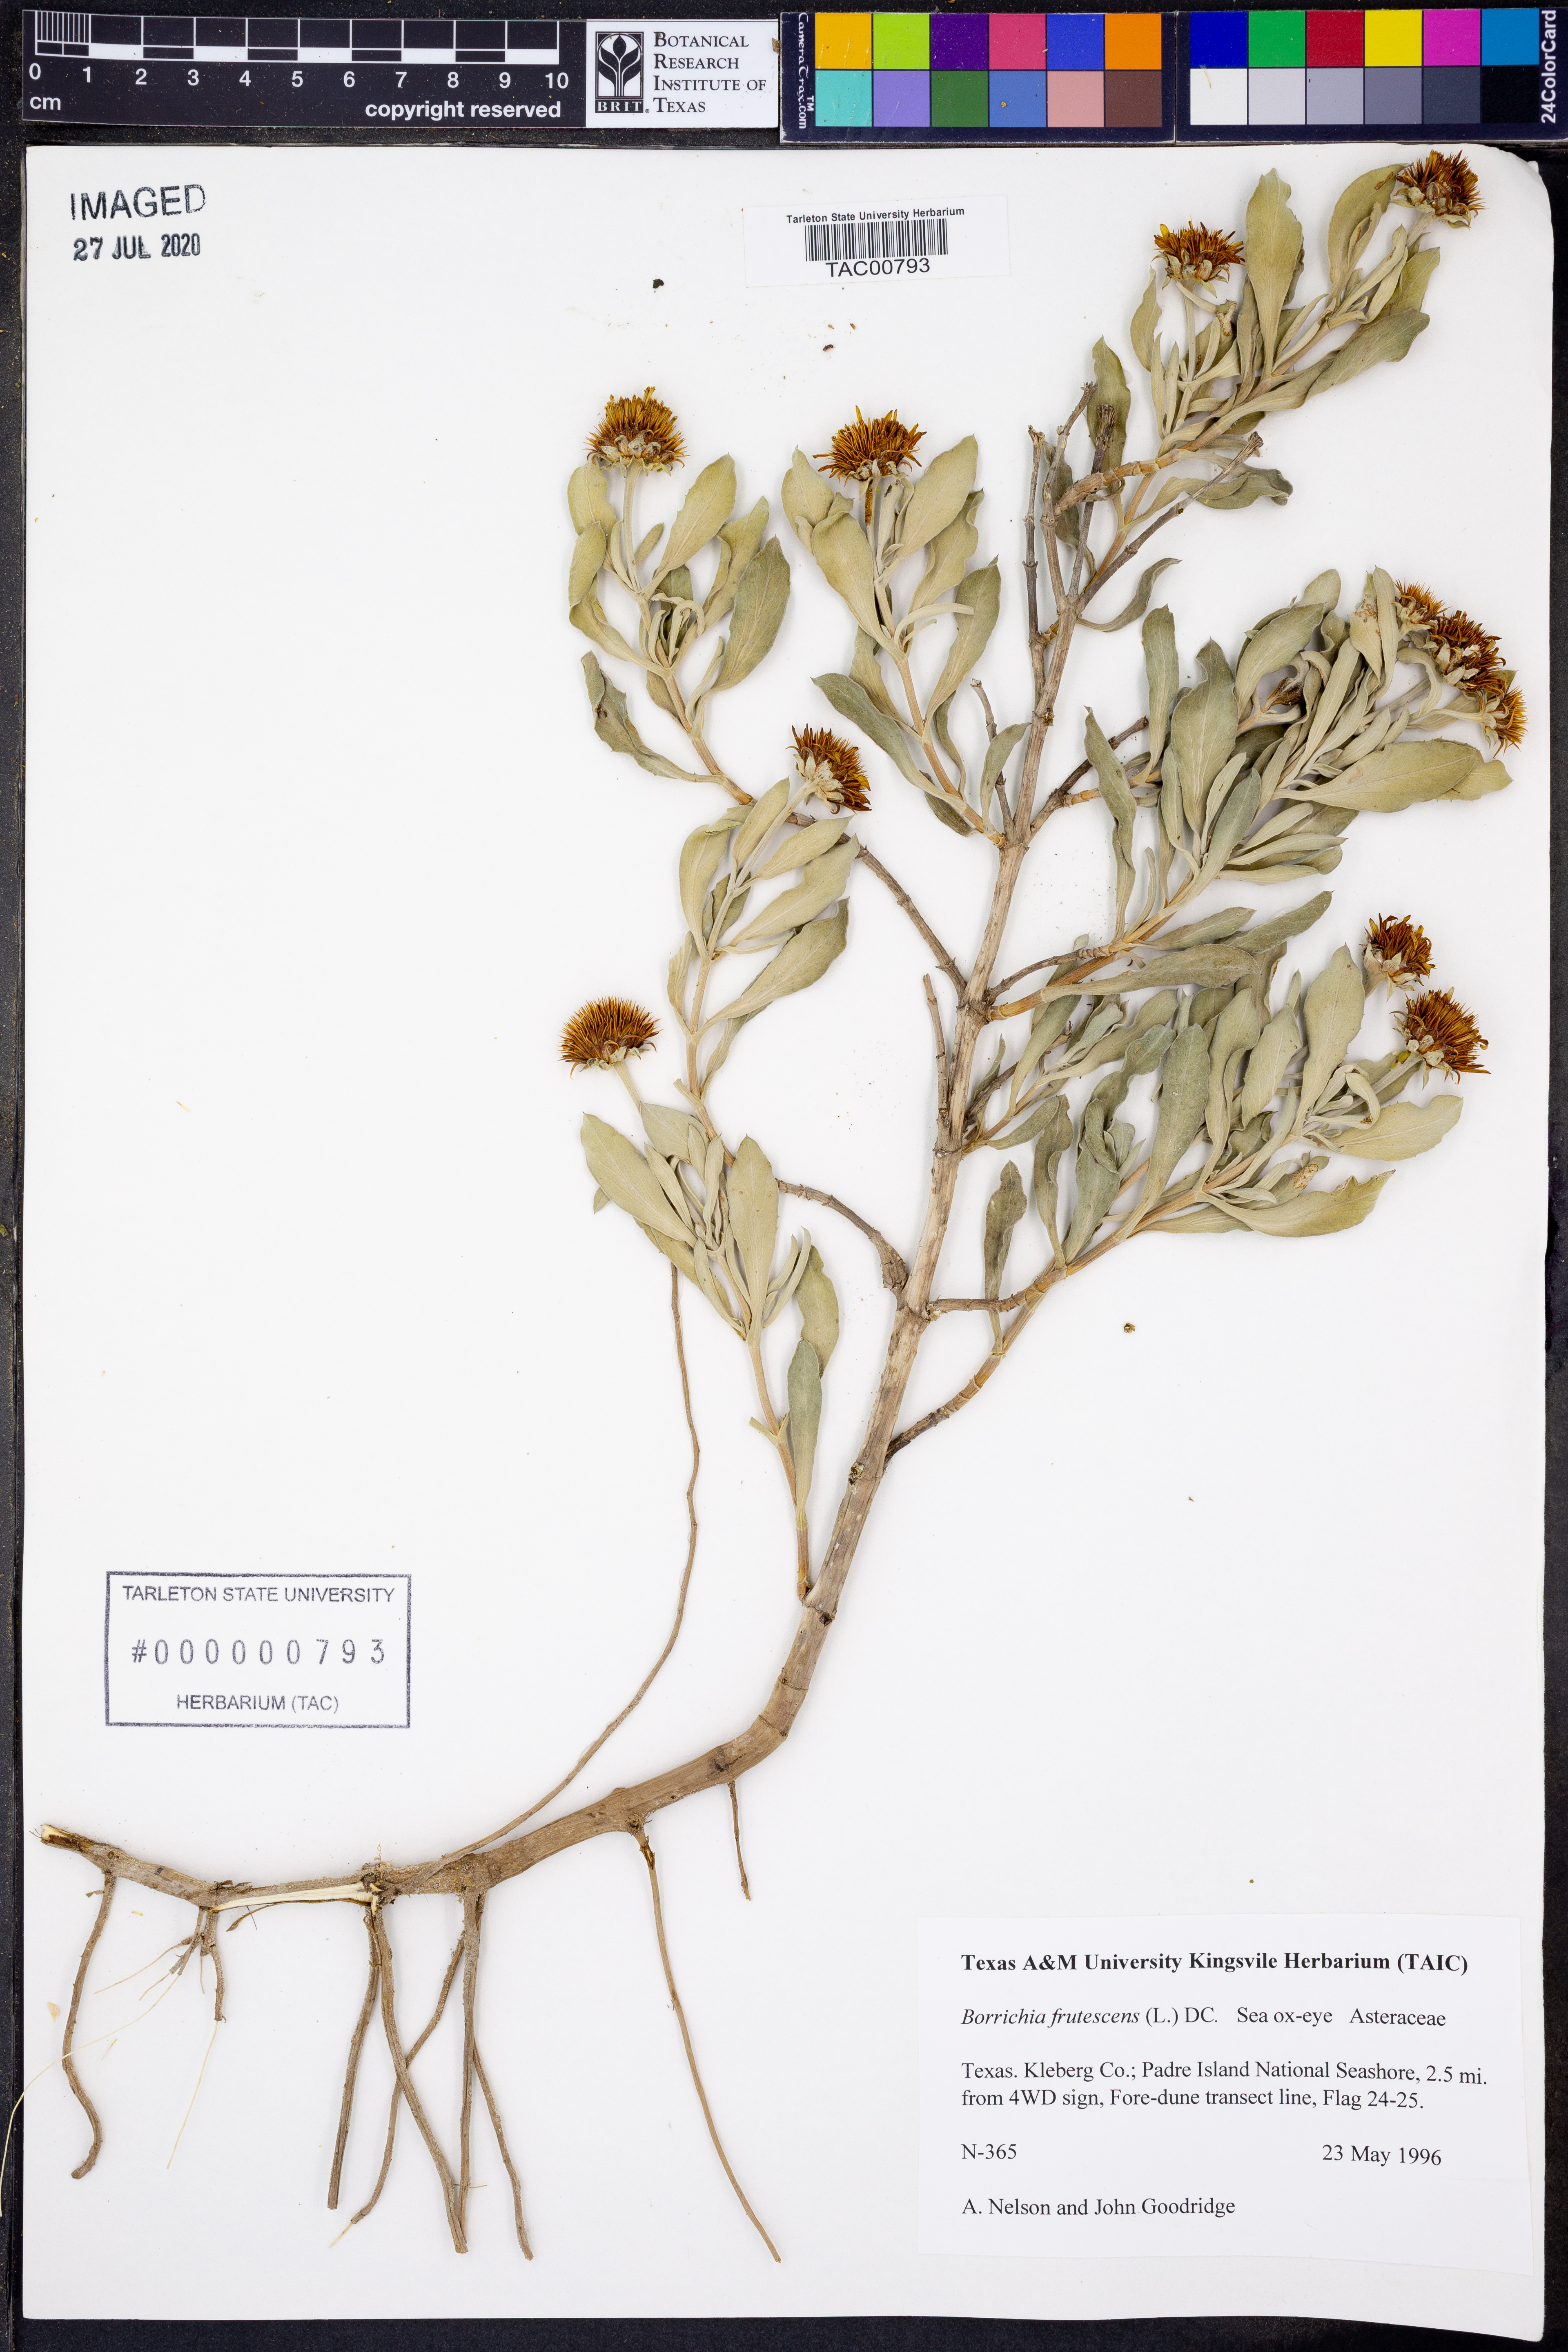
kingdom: Plantae
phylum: Tracheophyta
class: Magnoliopsida
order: Asterales
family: Asteraceae
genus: Borrichia
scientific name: Borrichia frutescens
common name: Sea oxeye
